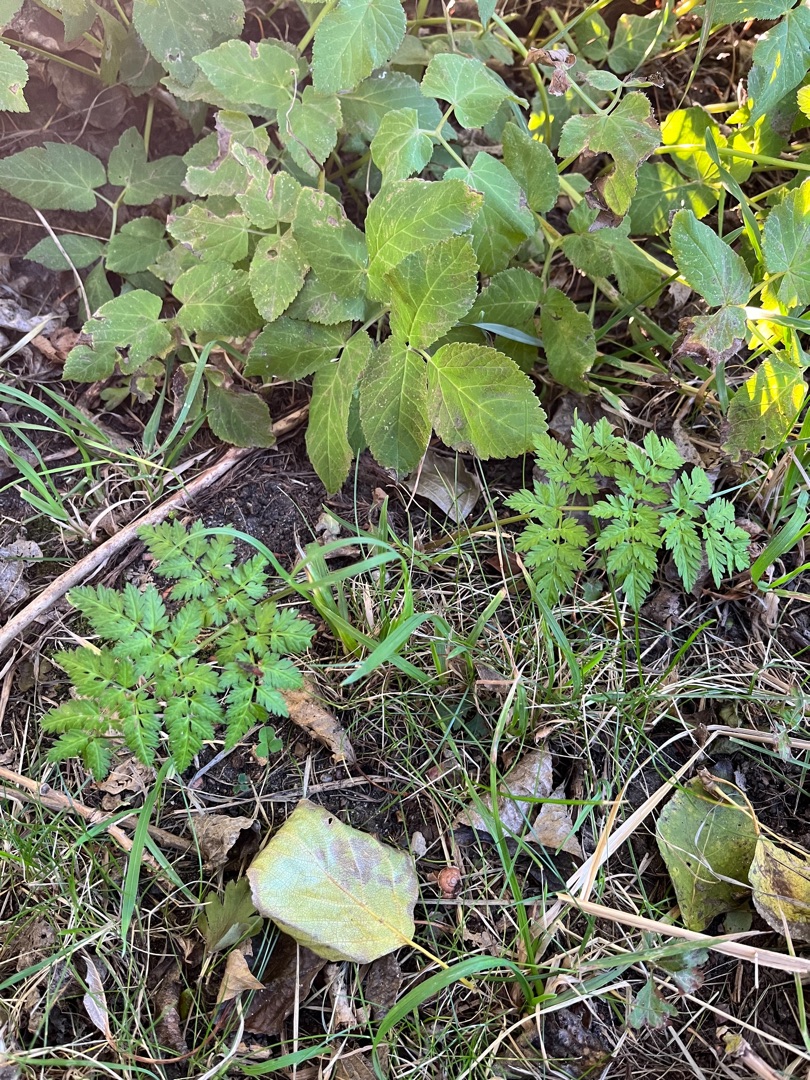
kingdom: Plantae
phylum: Tracheophyta
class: Magnoliopsida
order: Apiales
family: Apiaceae
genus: Anthriscus
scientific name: Anthriscus sylvestris
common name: Vild kørvel
